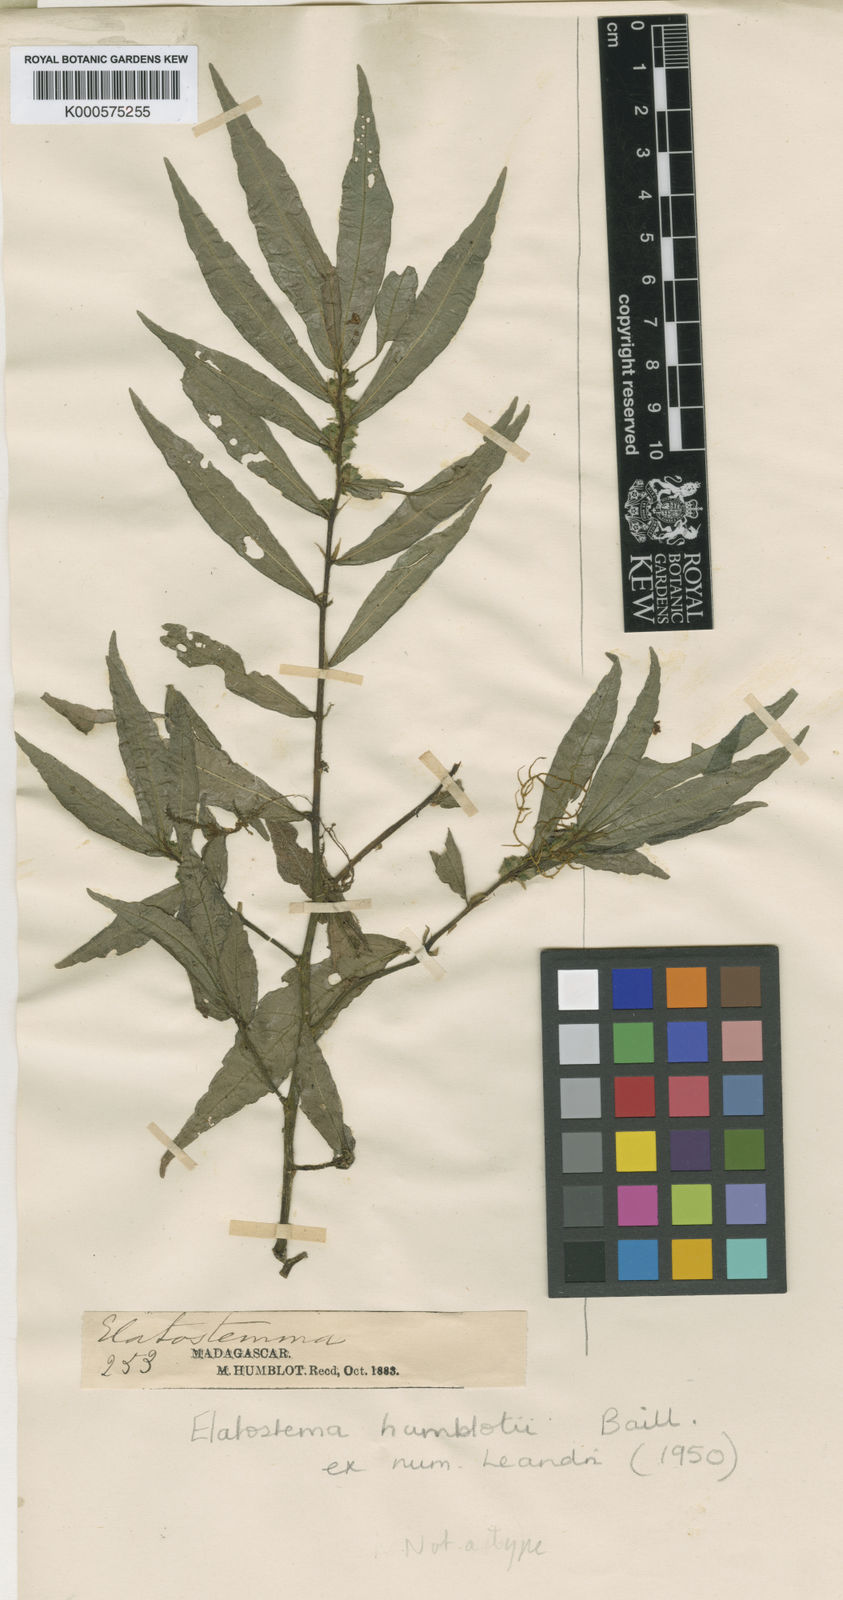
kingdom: Plantae
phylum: Tracheophyta
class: Magnoliopsida
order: Rosales
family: Urticaceae
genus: Elatostema
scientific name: Elatostema humblotii
